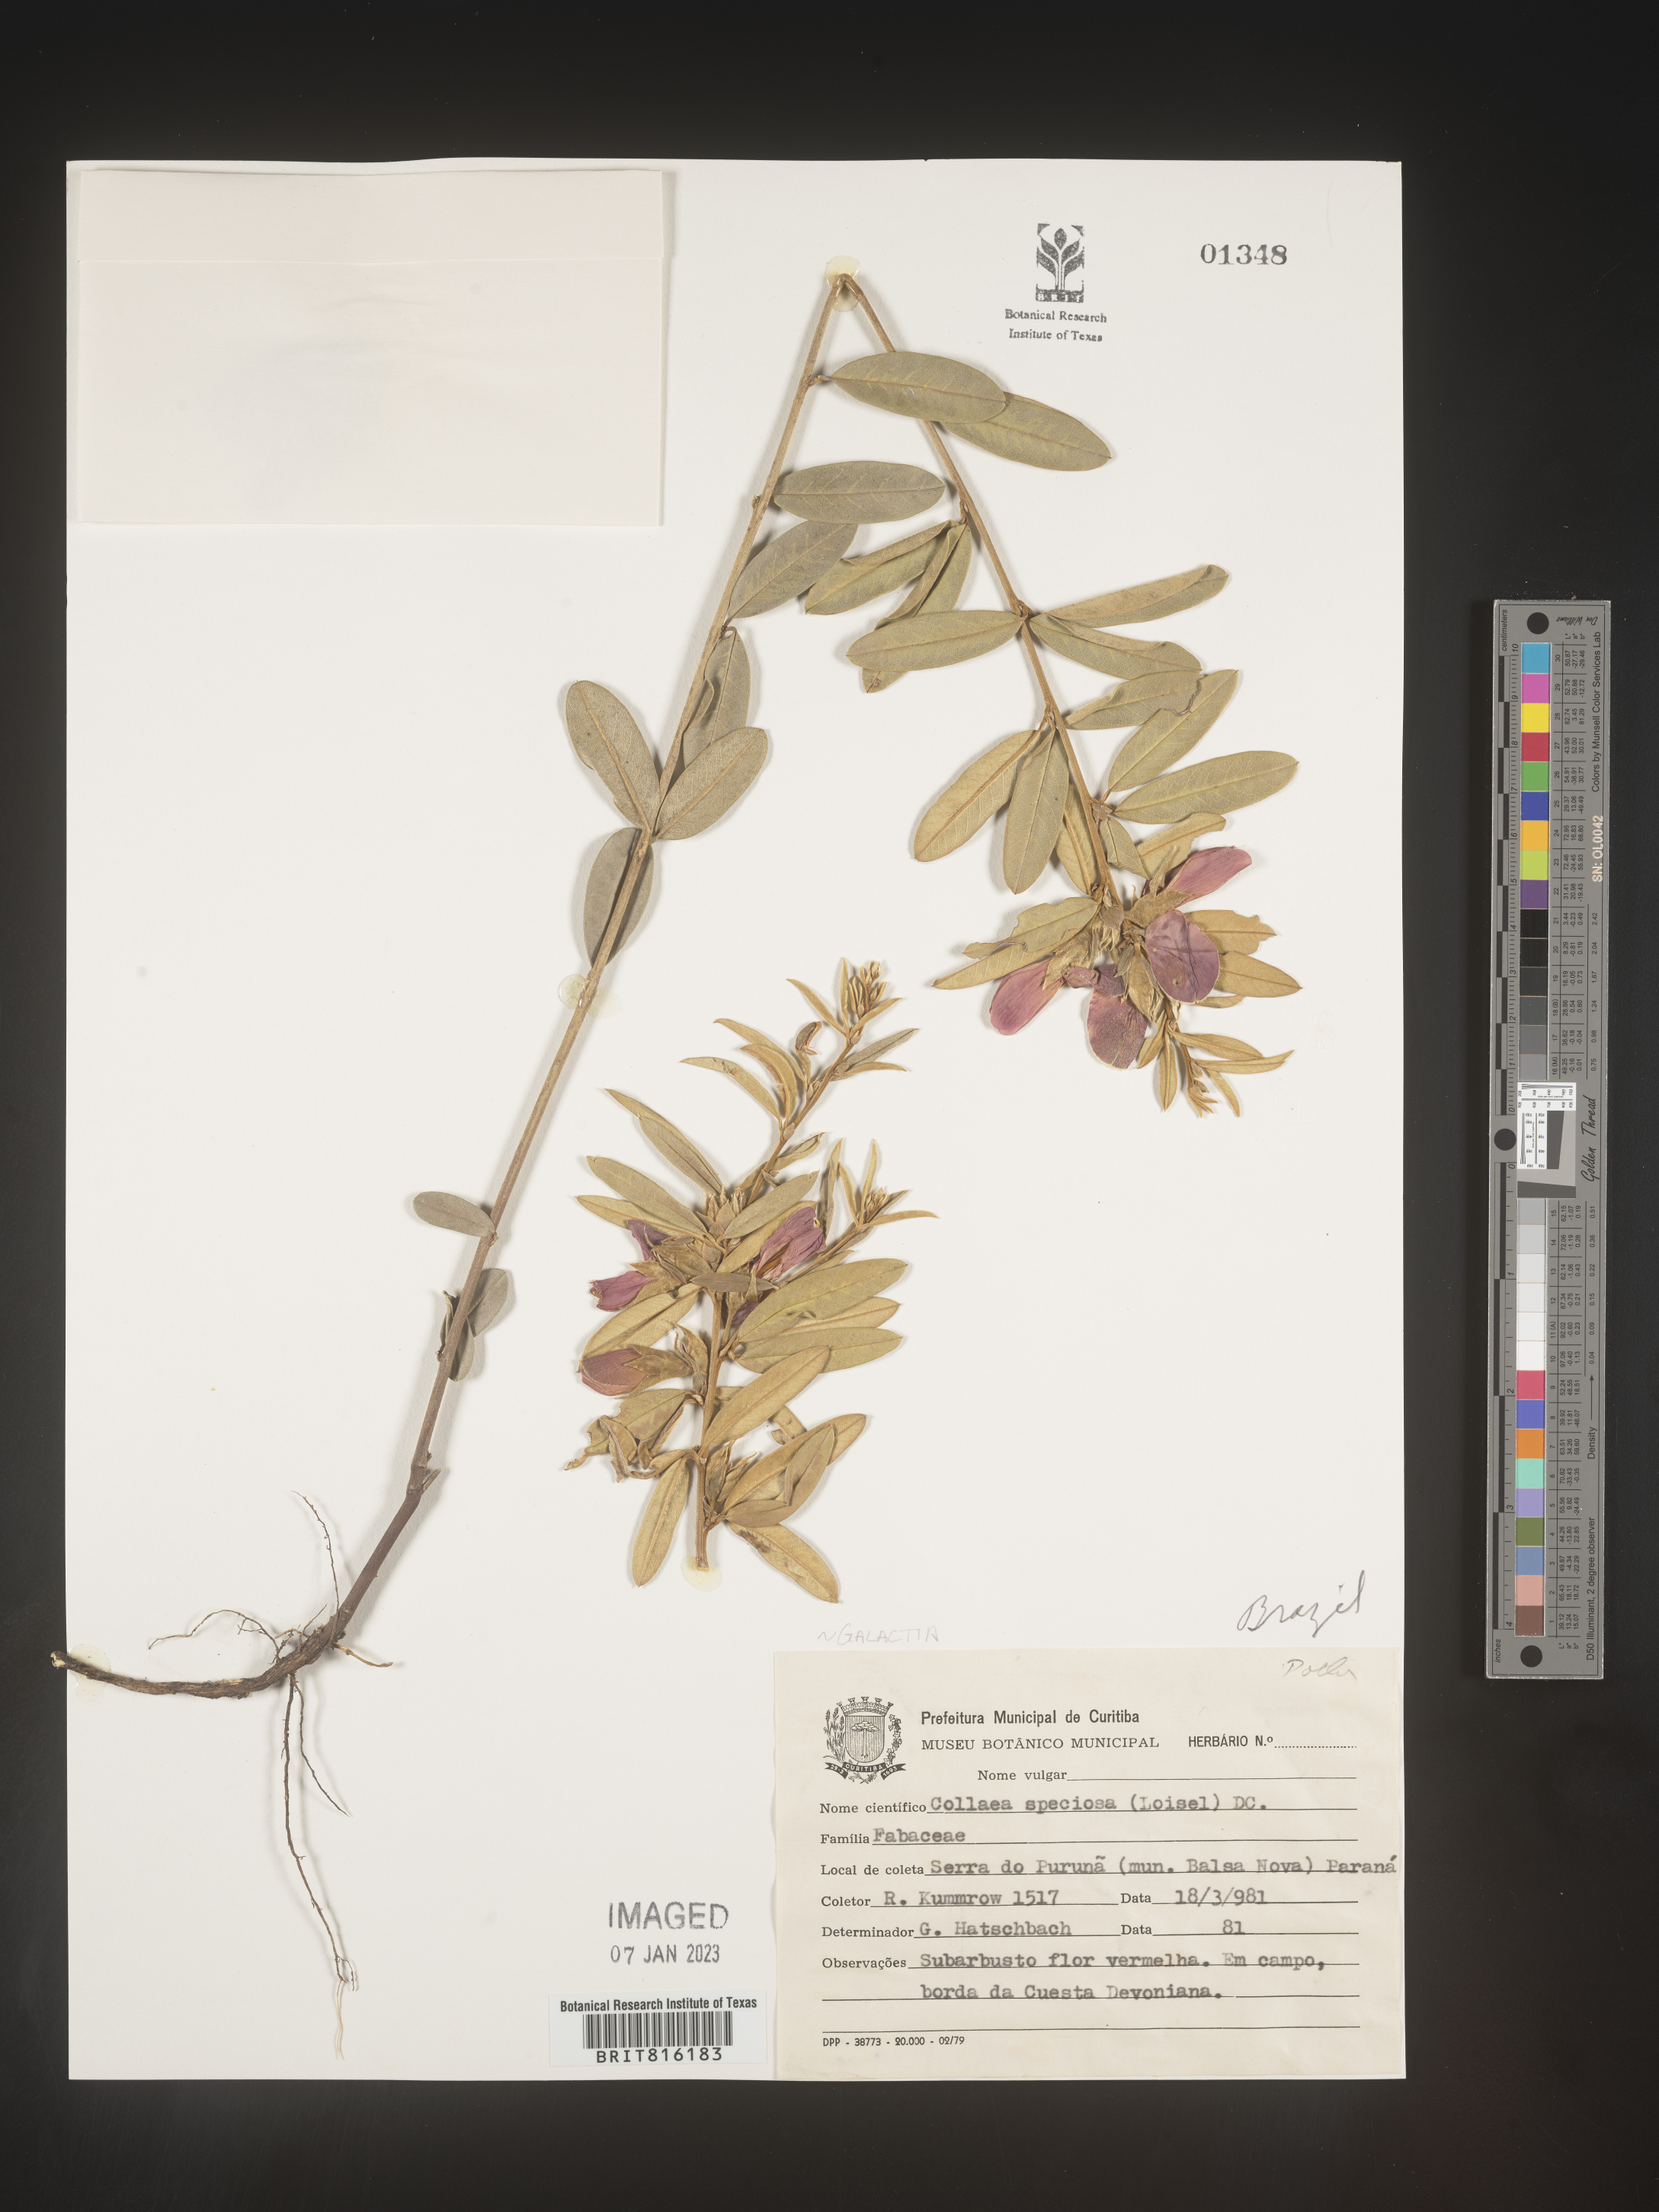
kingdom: Plantae
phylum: Tracheophyta
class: Magnoliopsida
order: Fabales
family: Fabaceae
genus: Collaea
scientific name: Collaea
